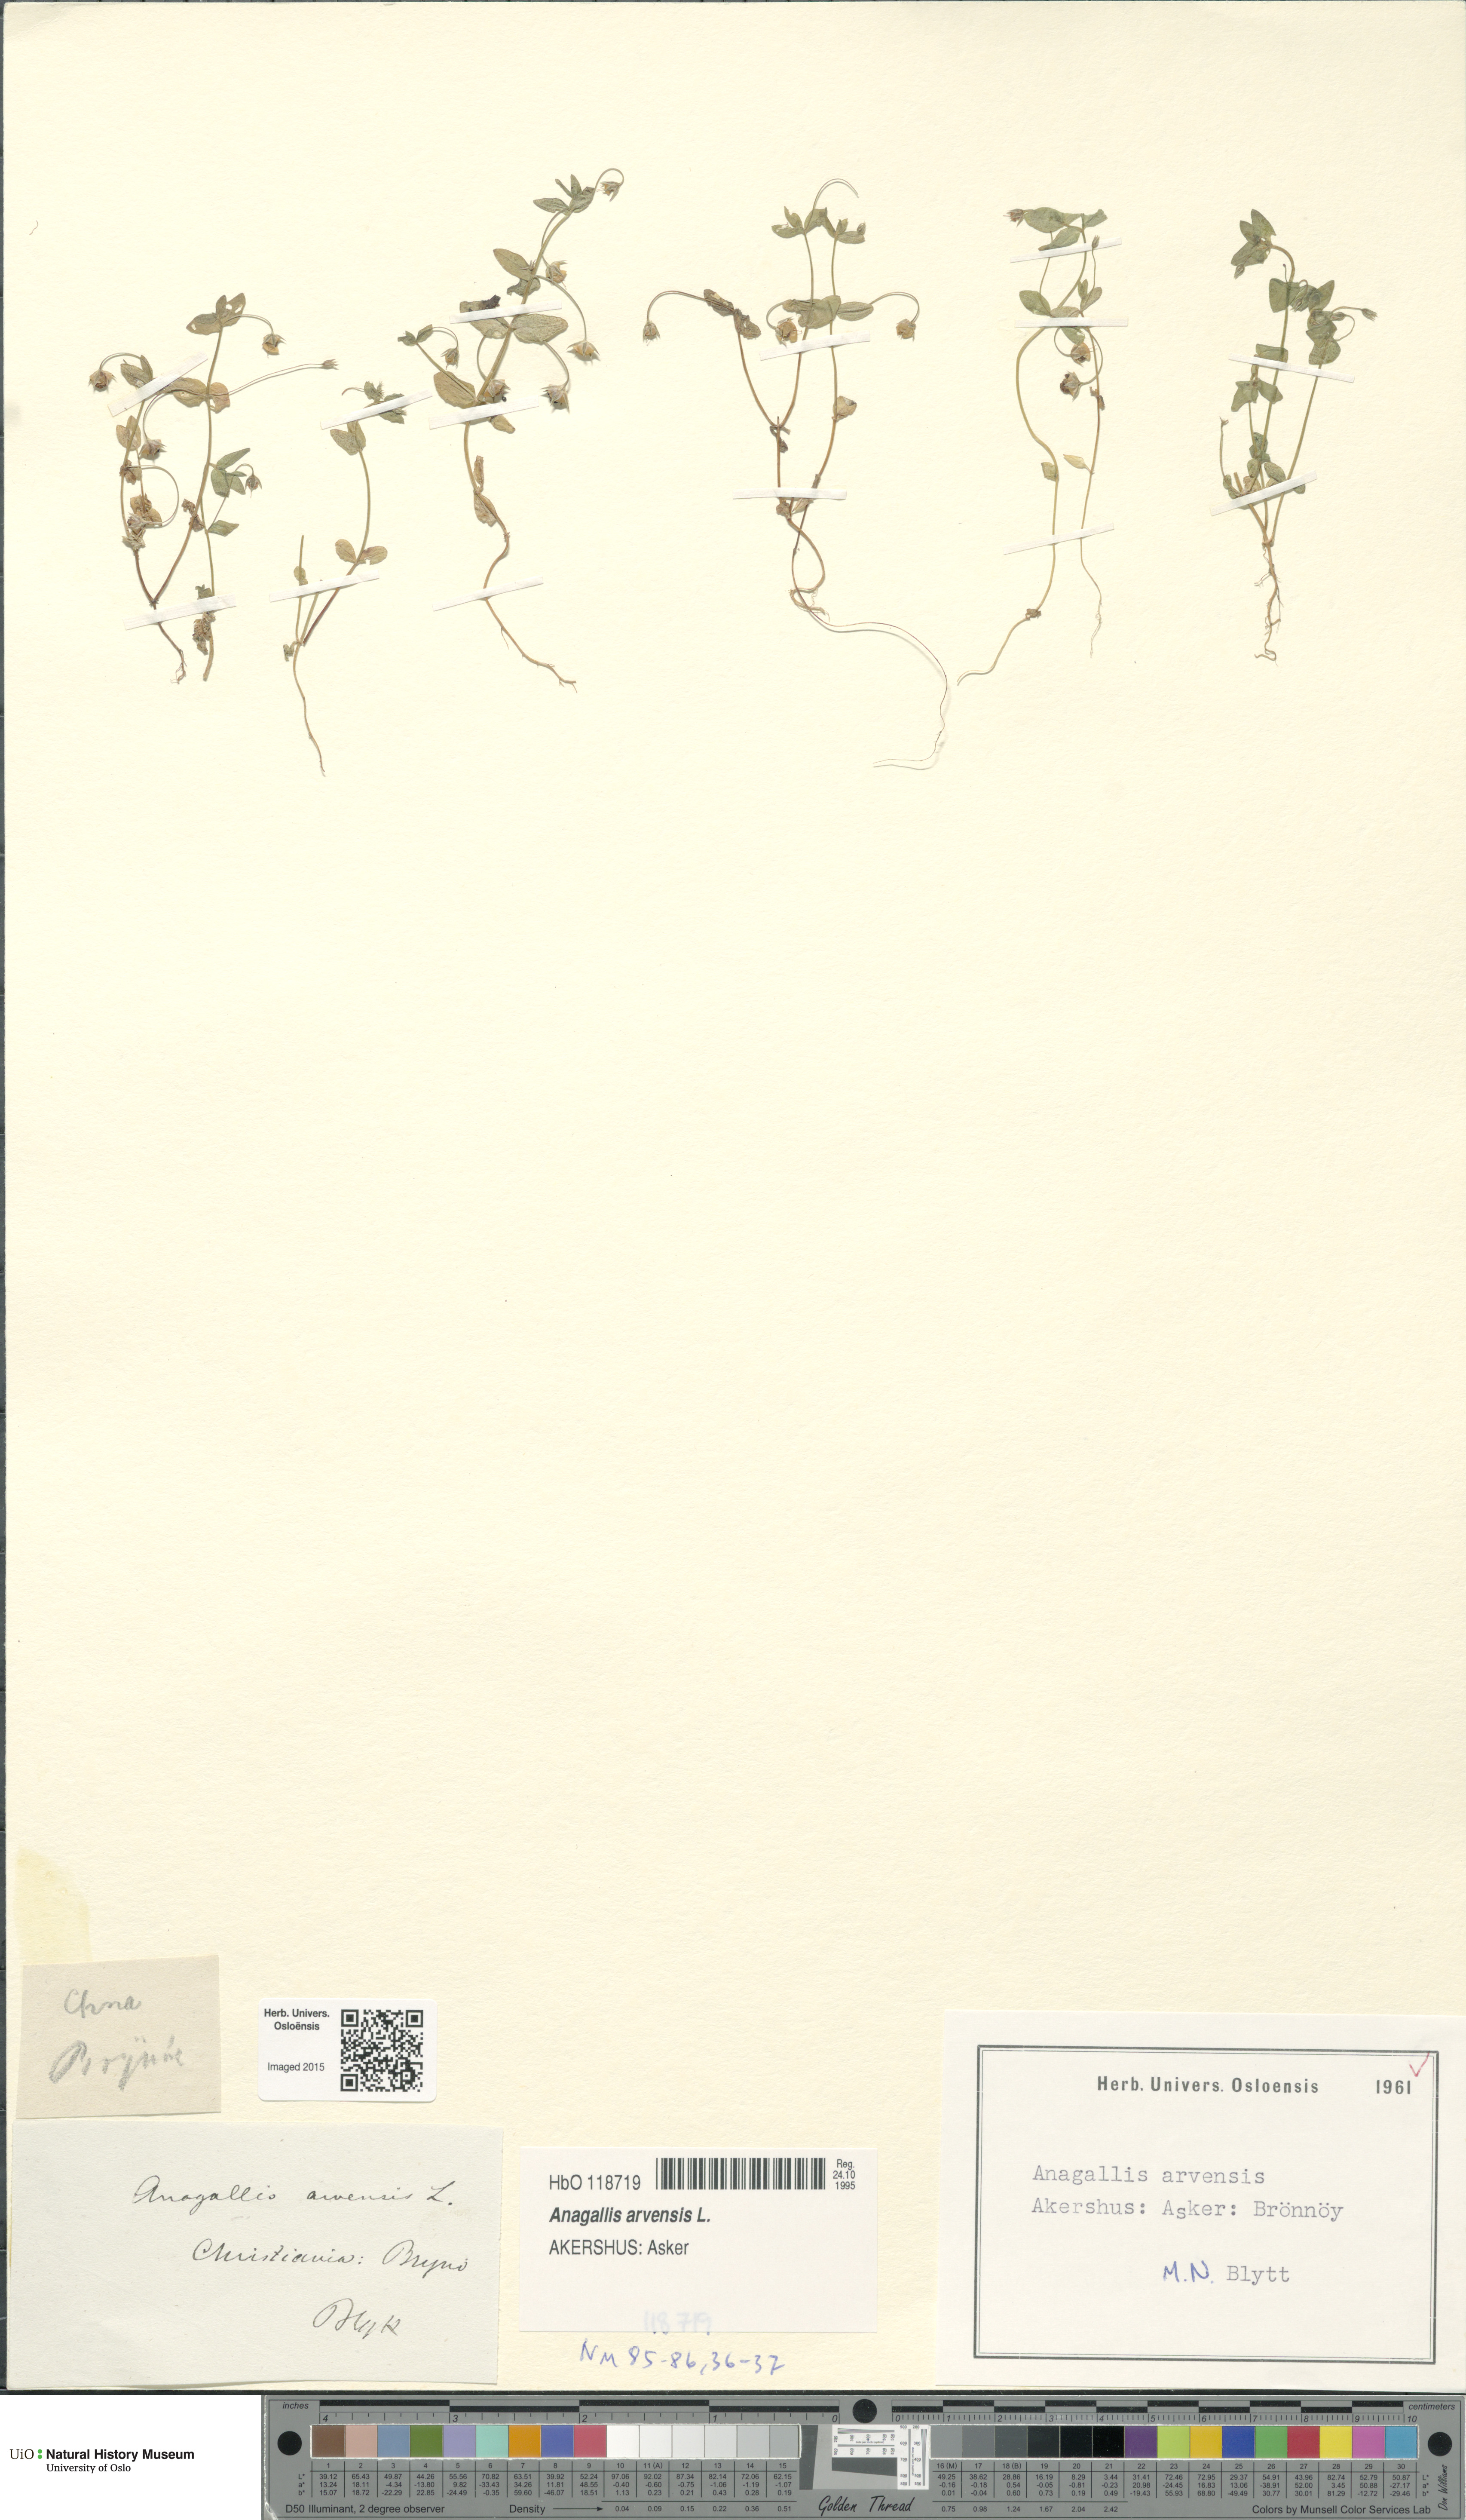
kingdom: Plantae
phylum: Tracheophyta
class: Magnoliopsida
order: Ericales
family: Primulaceae
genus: Lysimachia
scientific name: Lysimachia arvensis
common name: Scarlet pimpernel
